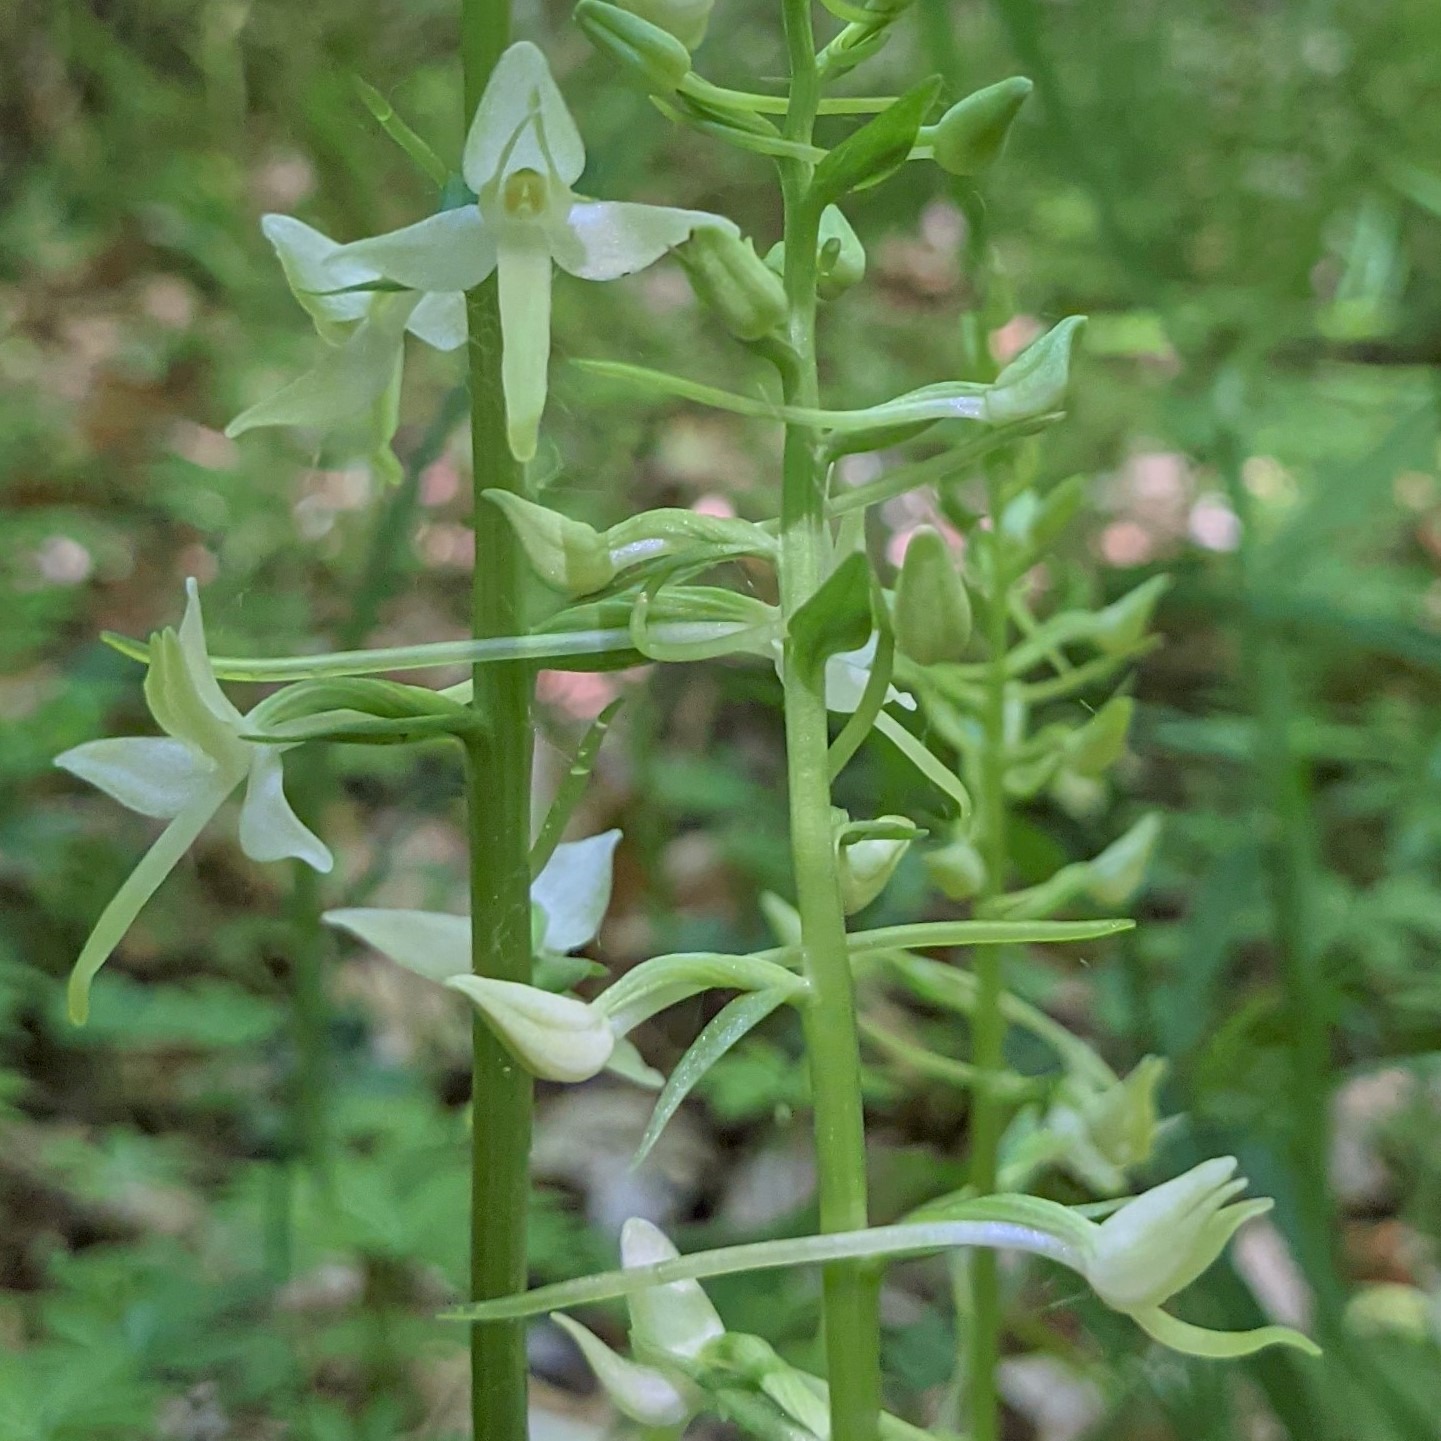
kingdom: Plantae
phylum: Tracheophyta
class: Liliopsida
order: Asparagales
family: Orchidaceae
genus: Platanthera
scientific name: Platanthera bifolia
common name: Langsporet gøgelilje
